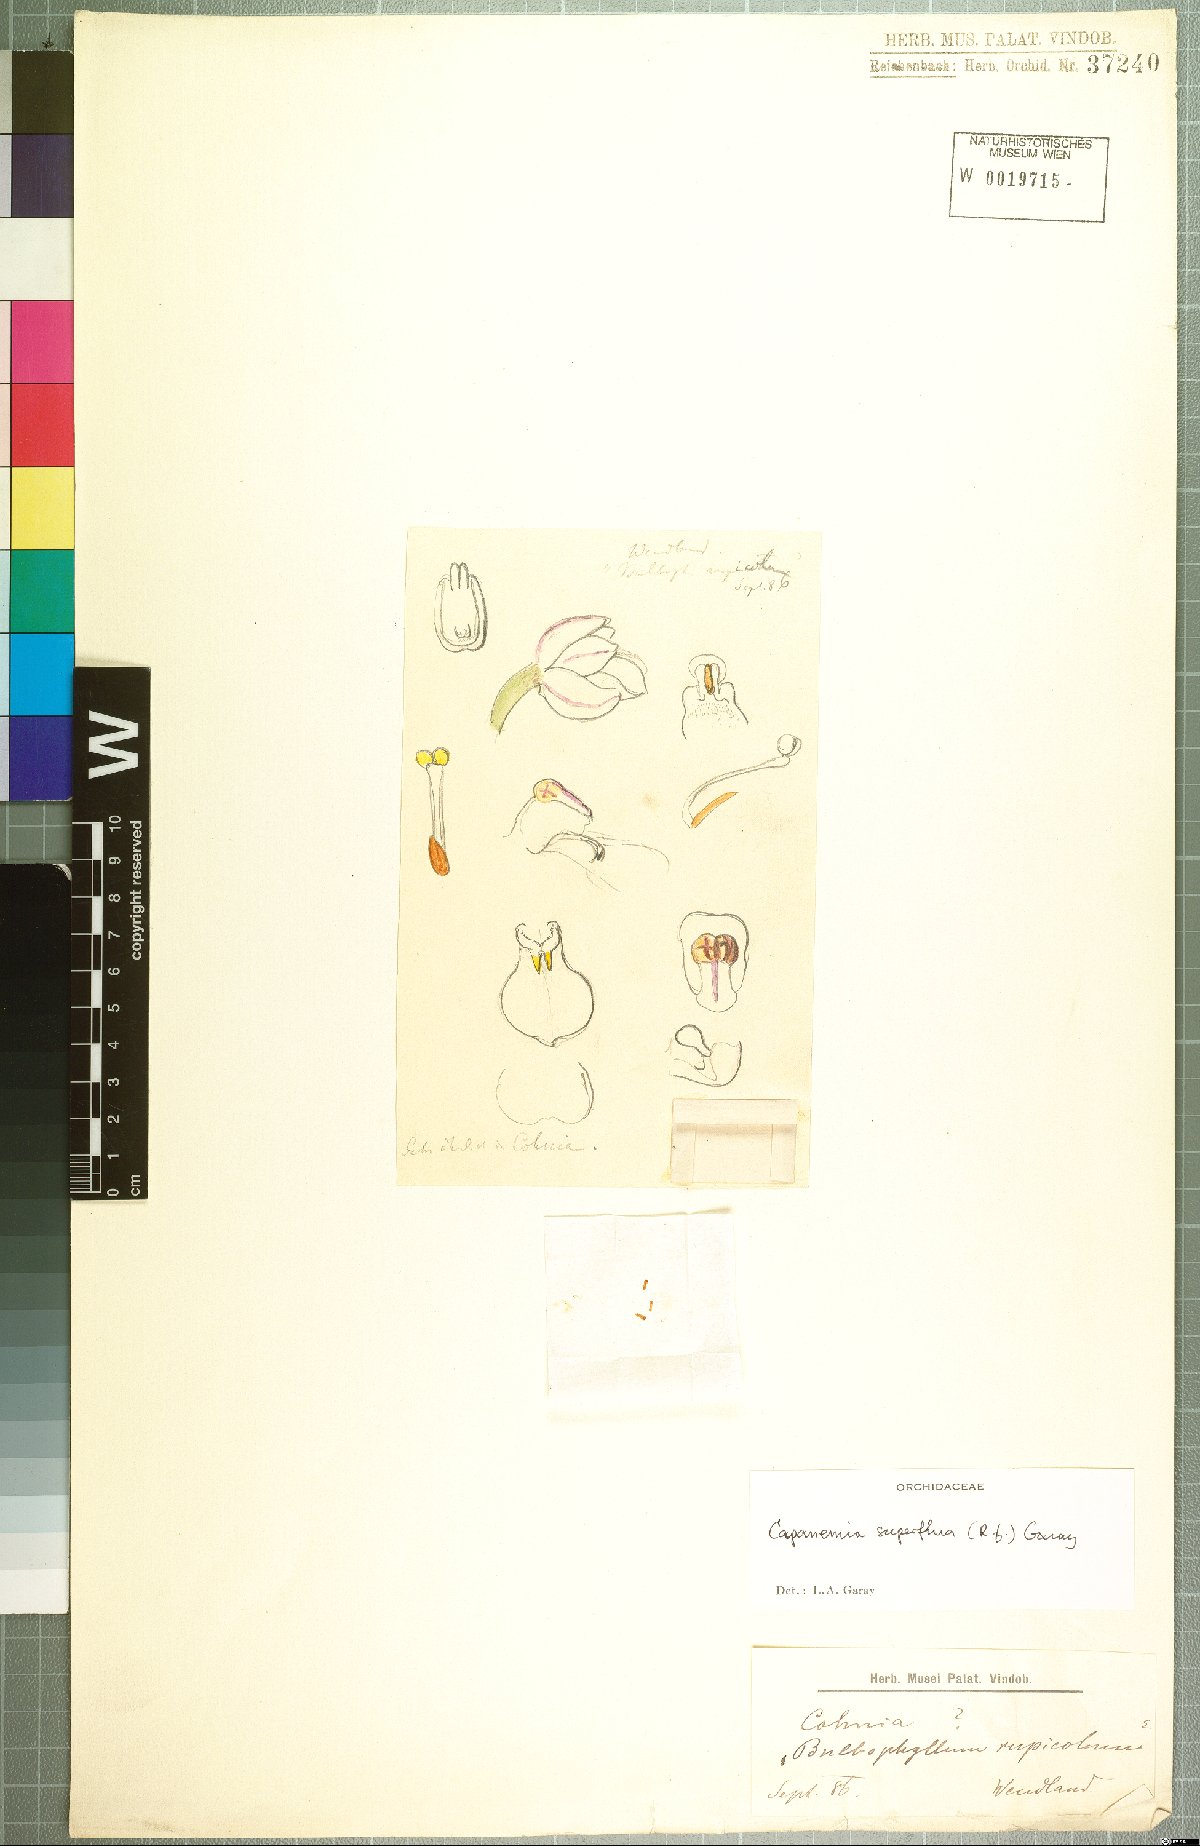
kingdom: Plantae
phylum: Tracheophyta
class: Liliopsida
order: Asparagales
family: Orchidaceae
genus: Capanemia
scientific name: Capanemia superflua
